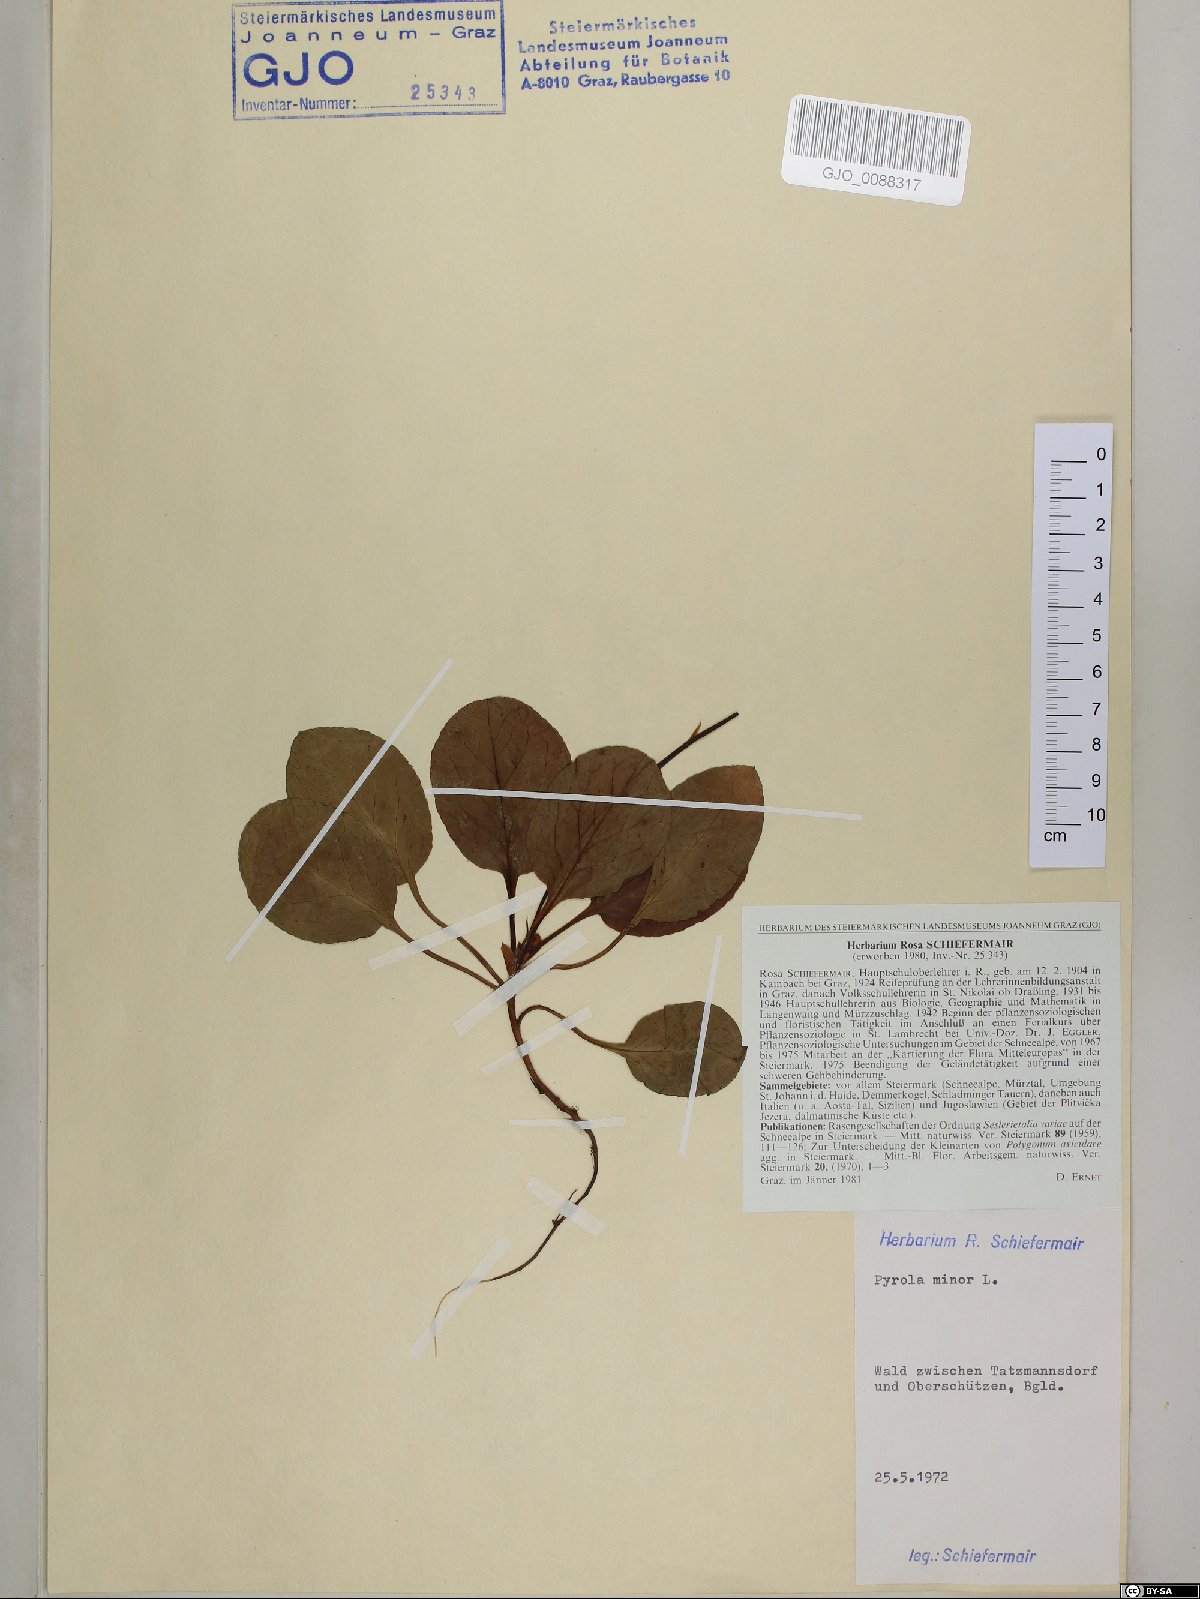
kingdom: Plantae
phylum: Tracheophyta
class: Magnoliopsida
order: Ericales
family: Ericaceae
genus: Pyrola
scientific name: Pyrola minor
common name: Common wintergreen
